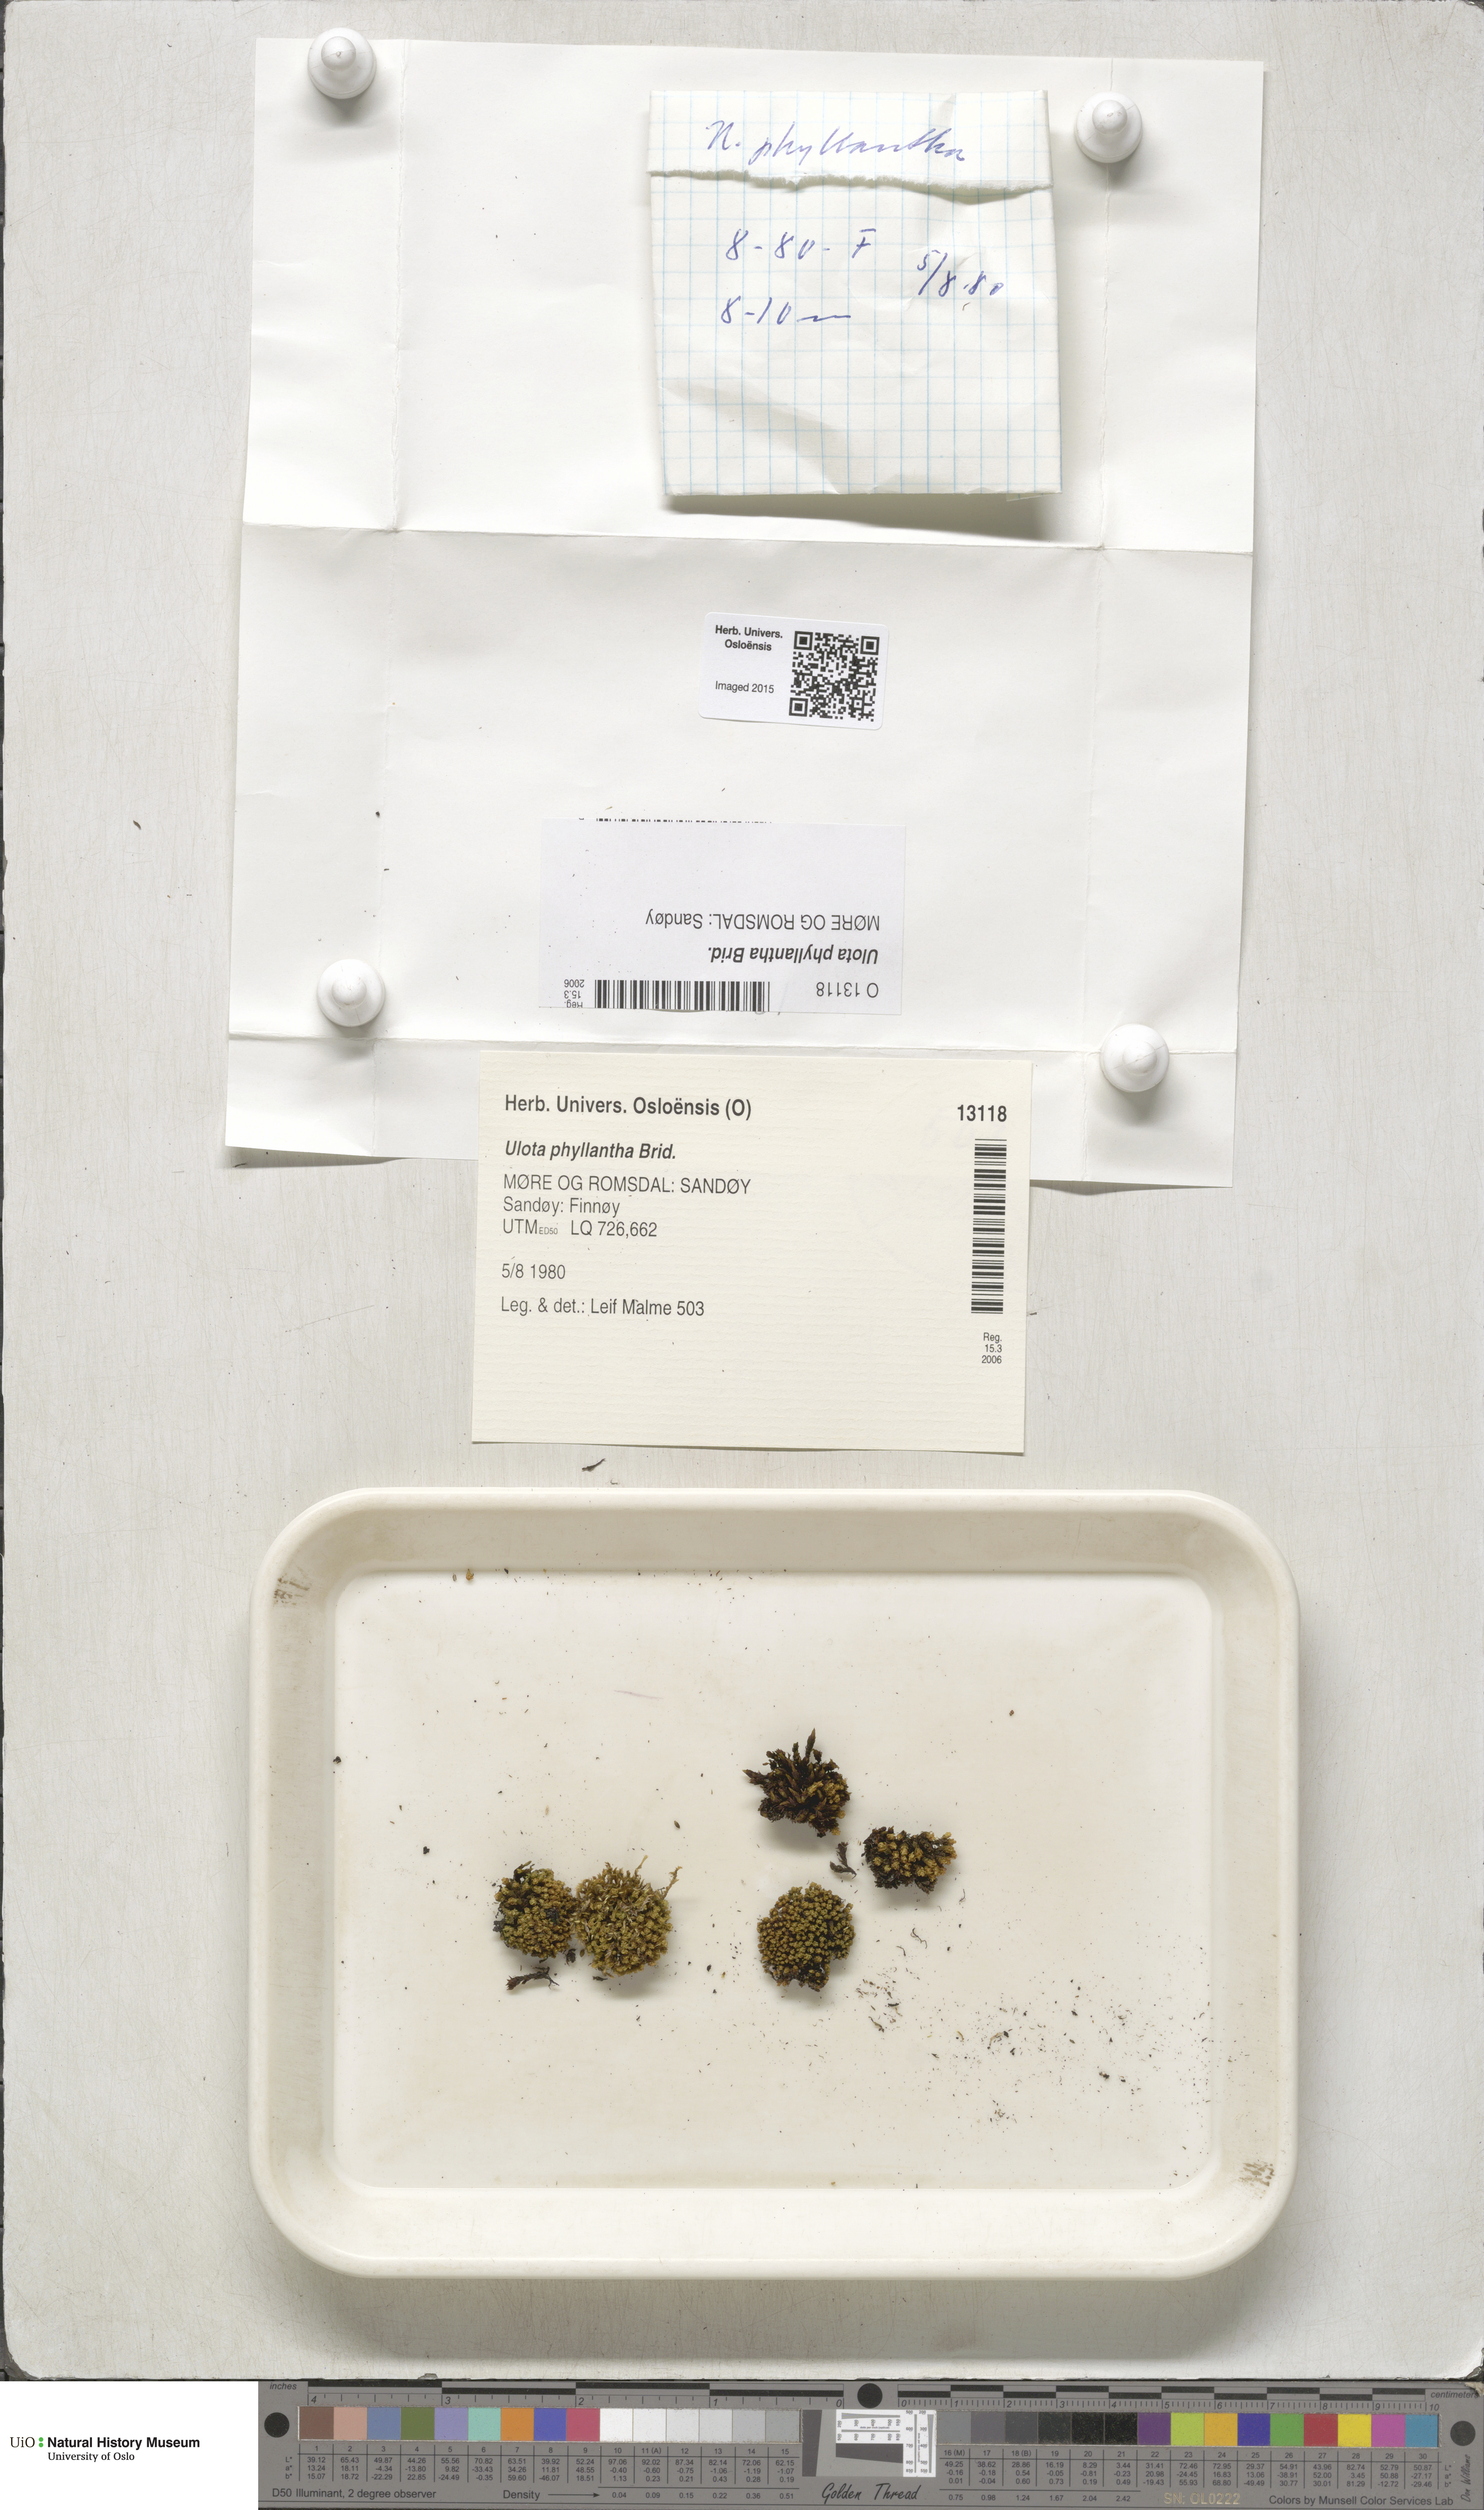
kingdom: Plantae
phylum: Bryophyta
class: Bryopsida
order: Orthotrichales
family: Orthotrichaceae
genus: Plenogemma
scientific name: Plenogemma phyllantha
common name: Frizzled pincushion
